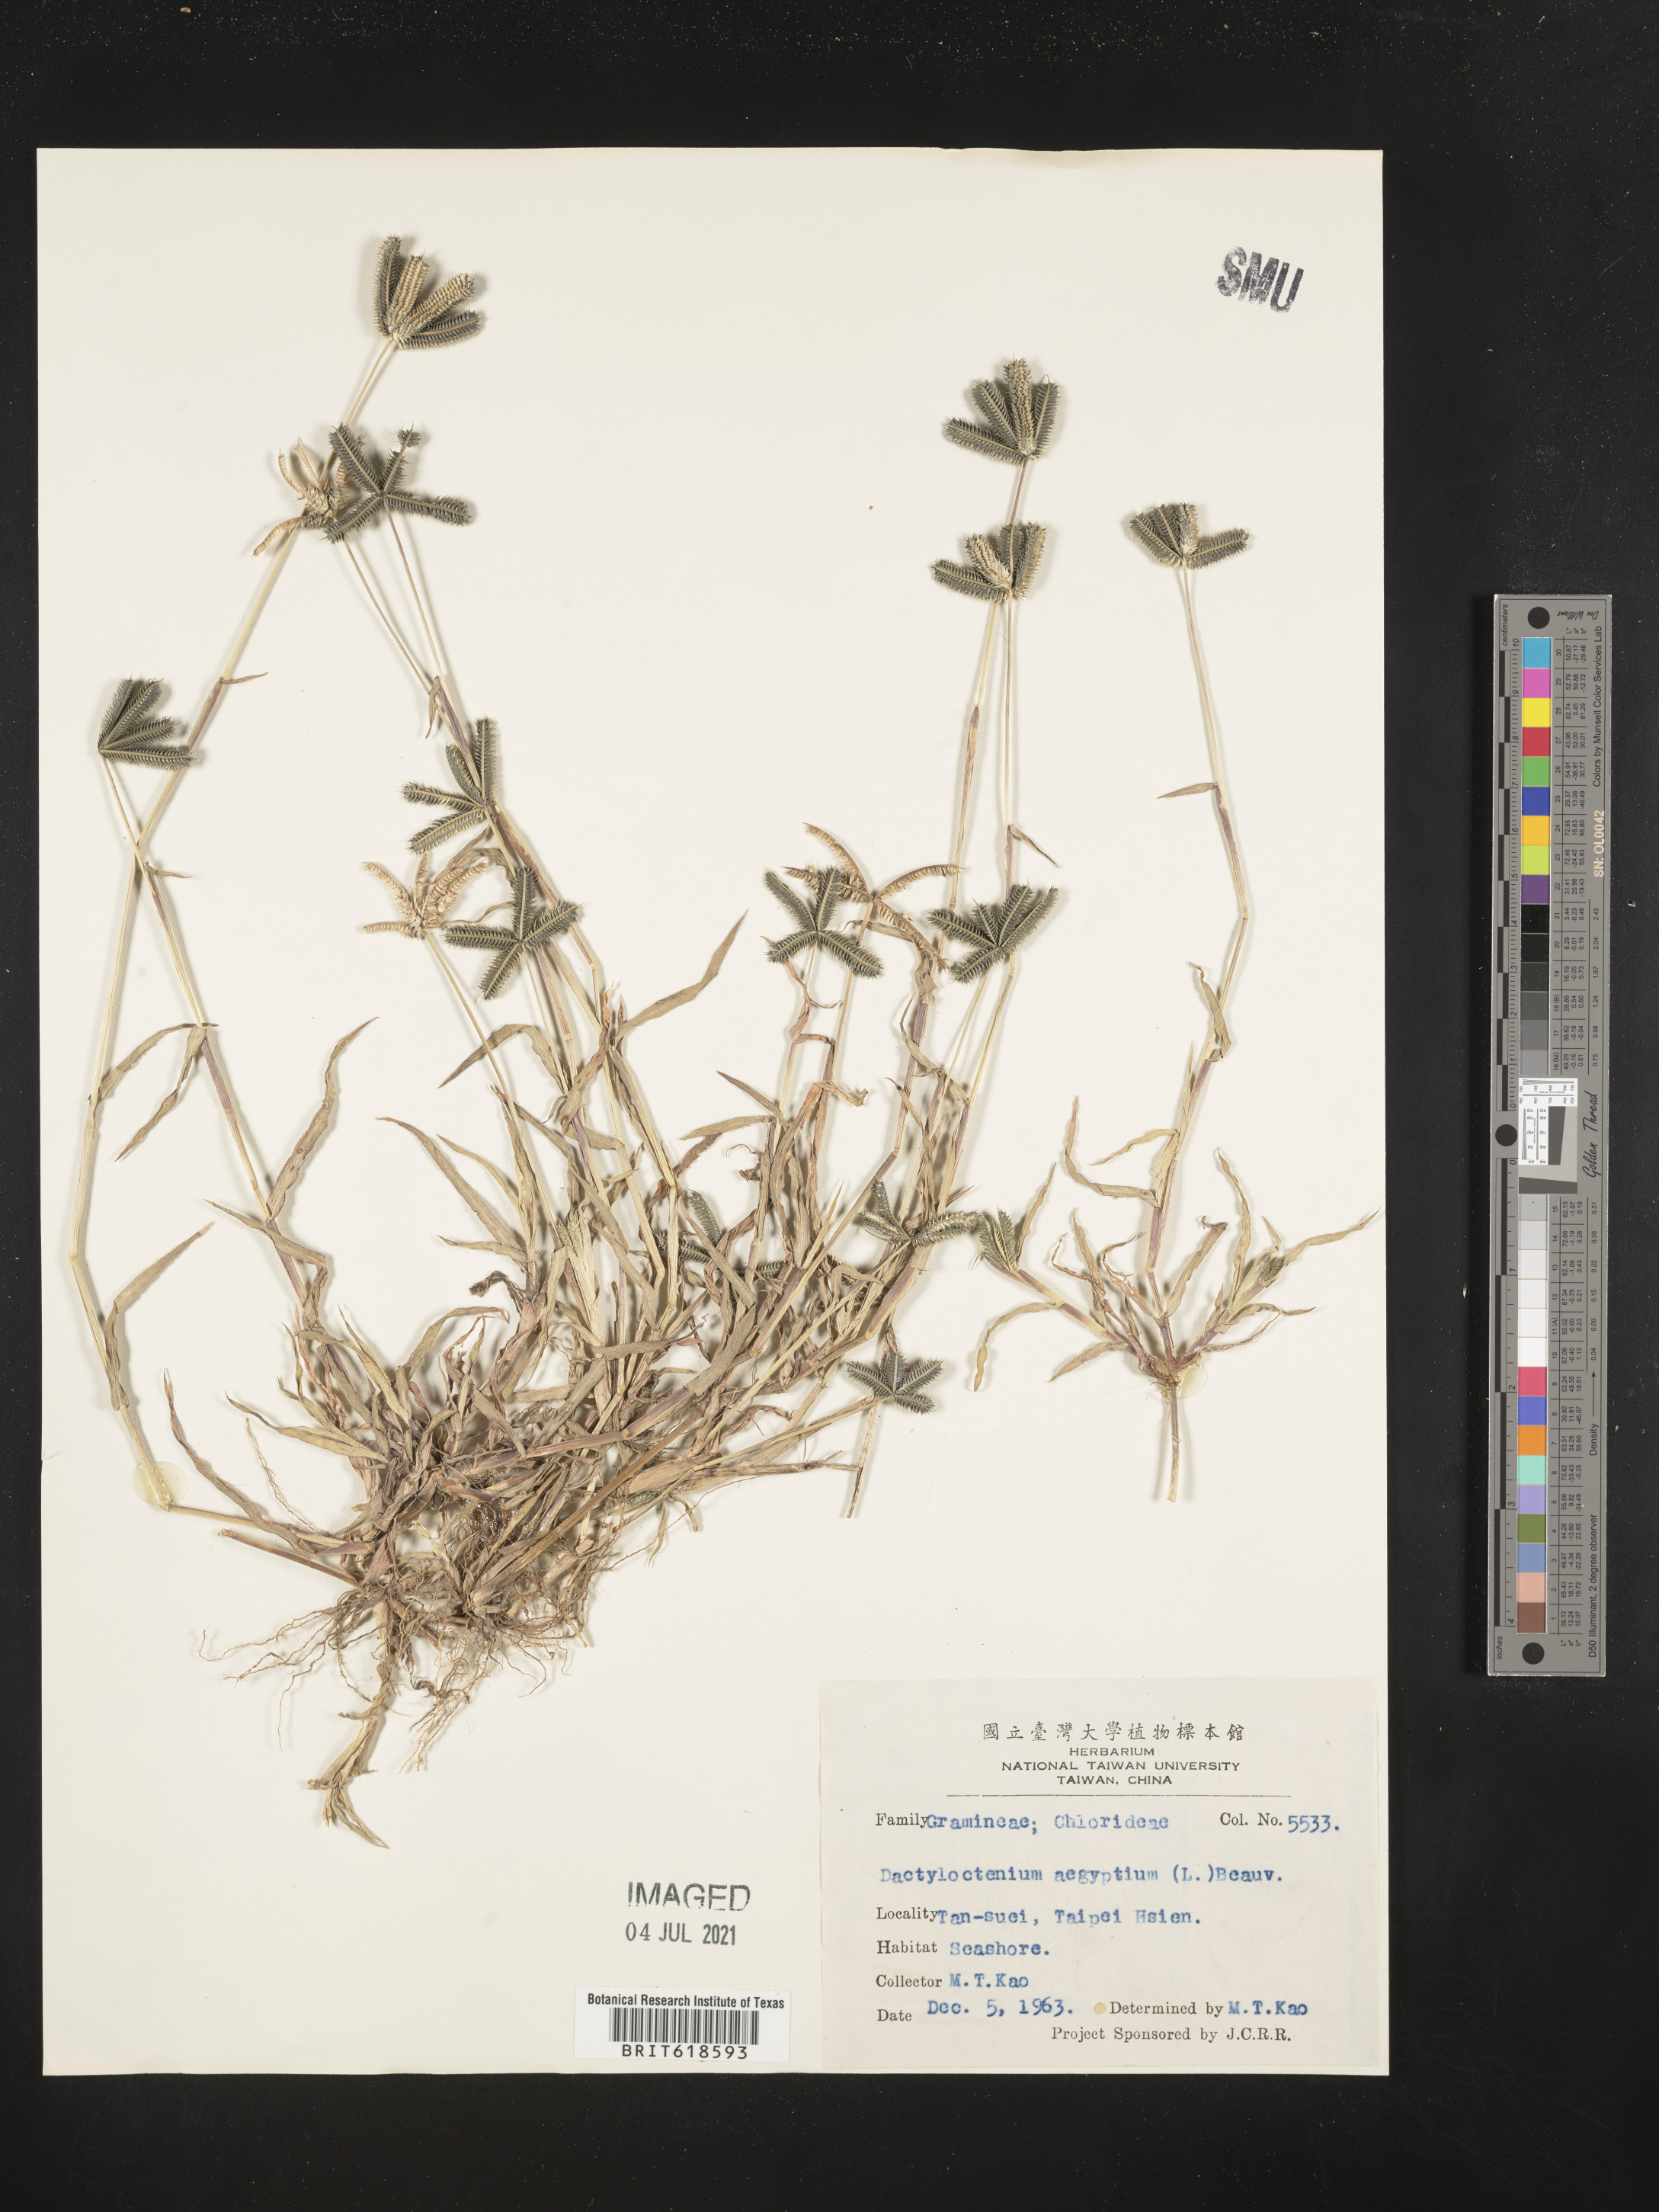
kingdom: Plantae
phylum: Tracheophyta
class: Liliopsida
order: Poales
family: Poaceae
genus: Dactyloctenium
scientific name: Dactyloctenium aegyptium
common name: Egyptian grass
